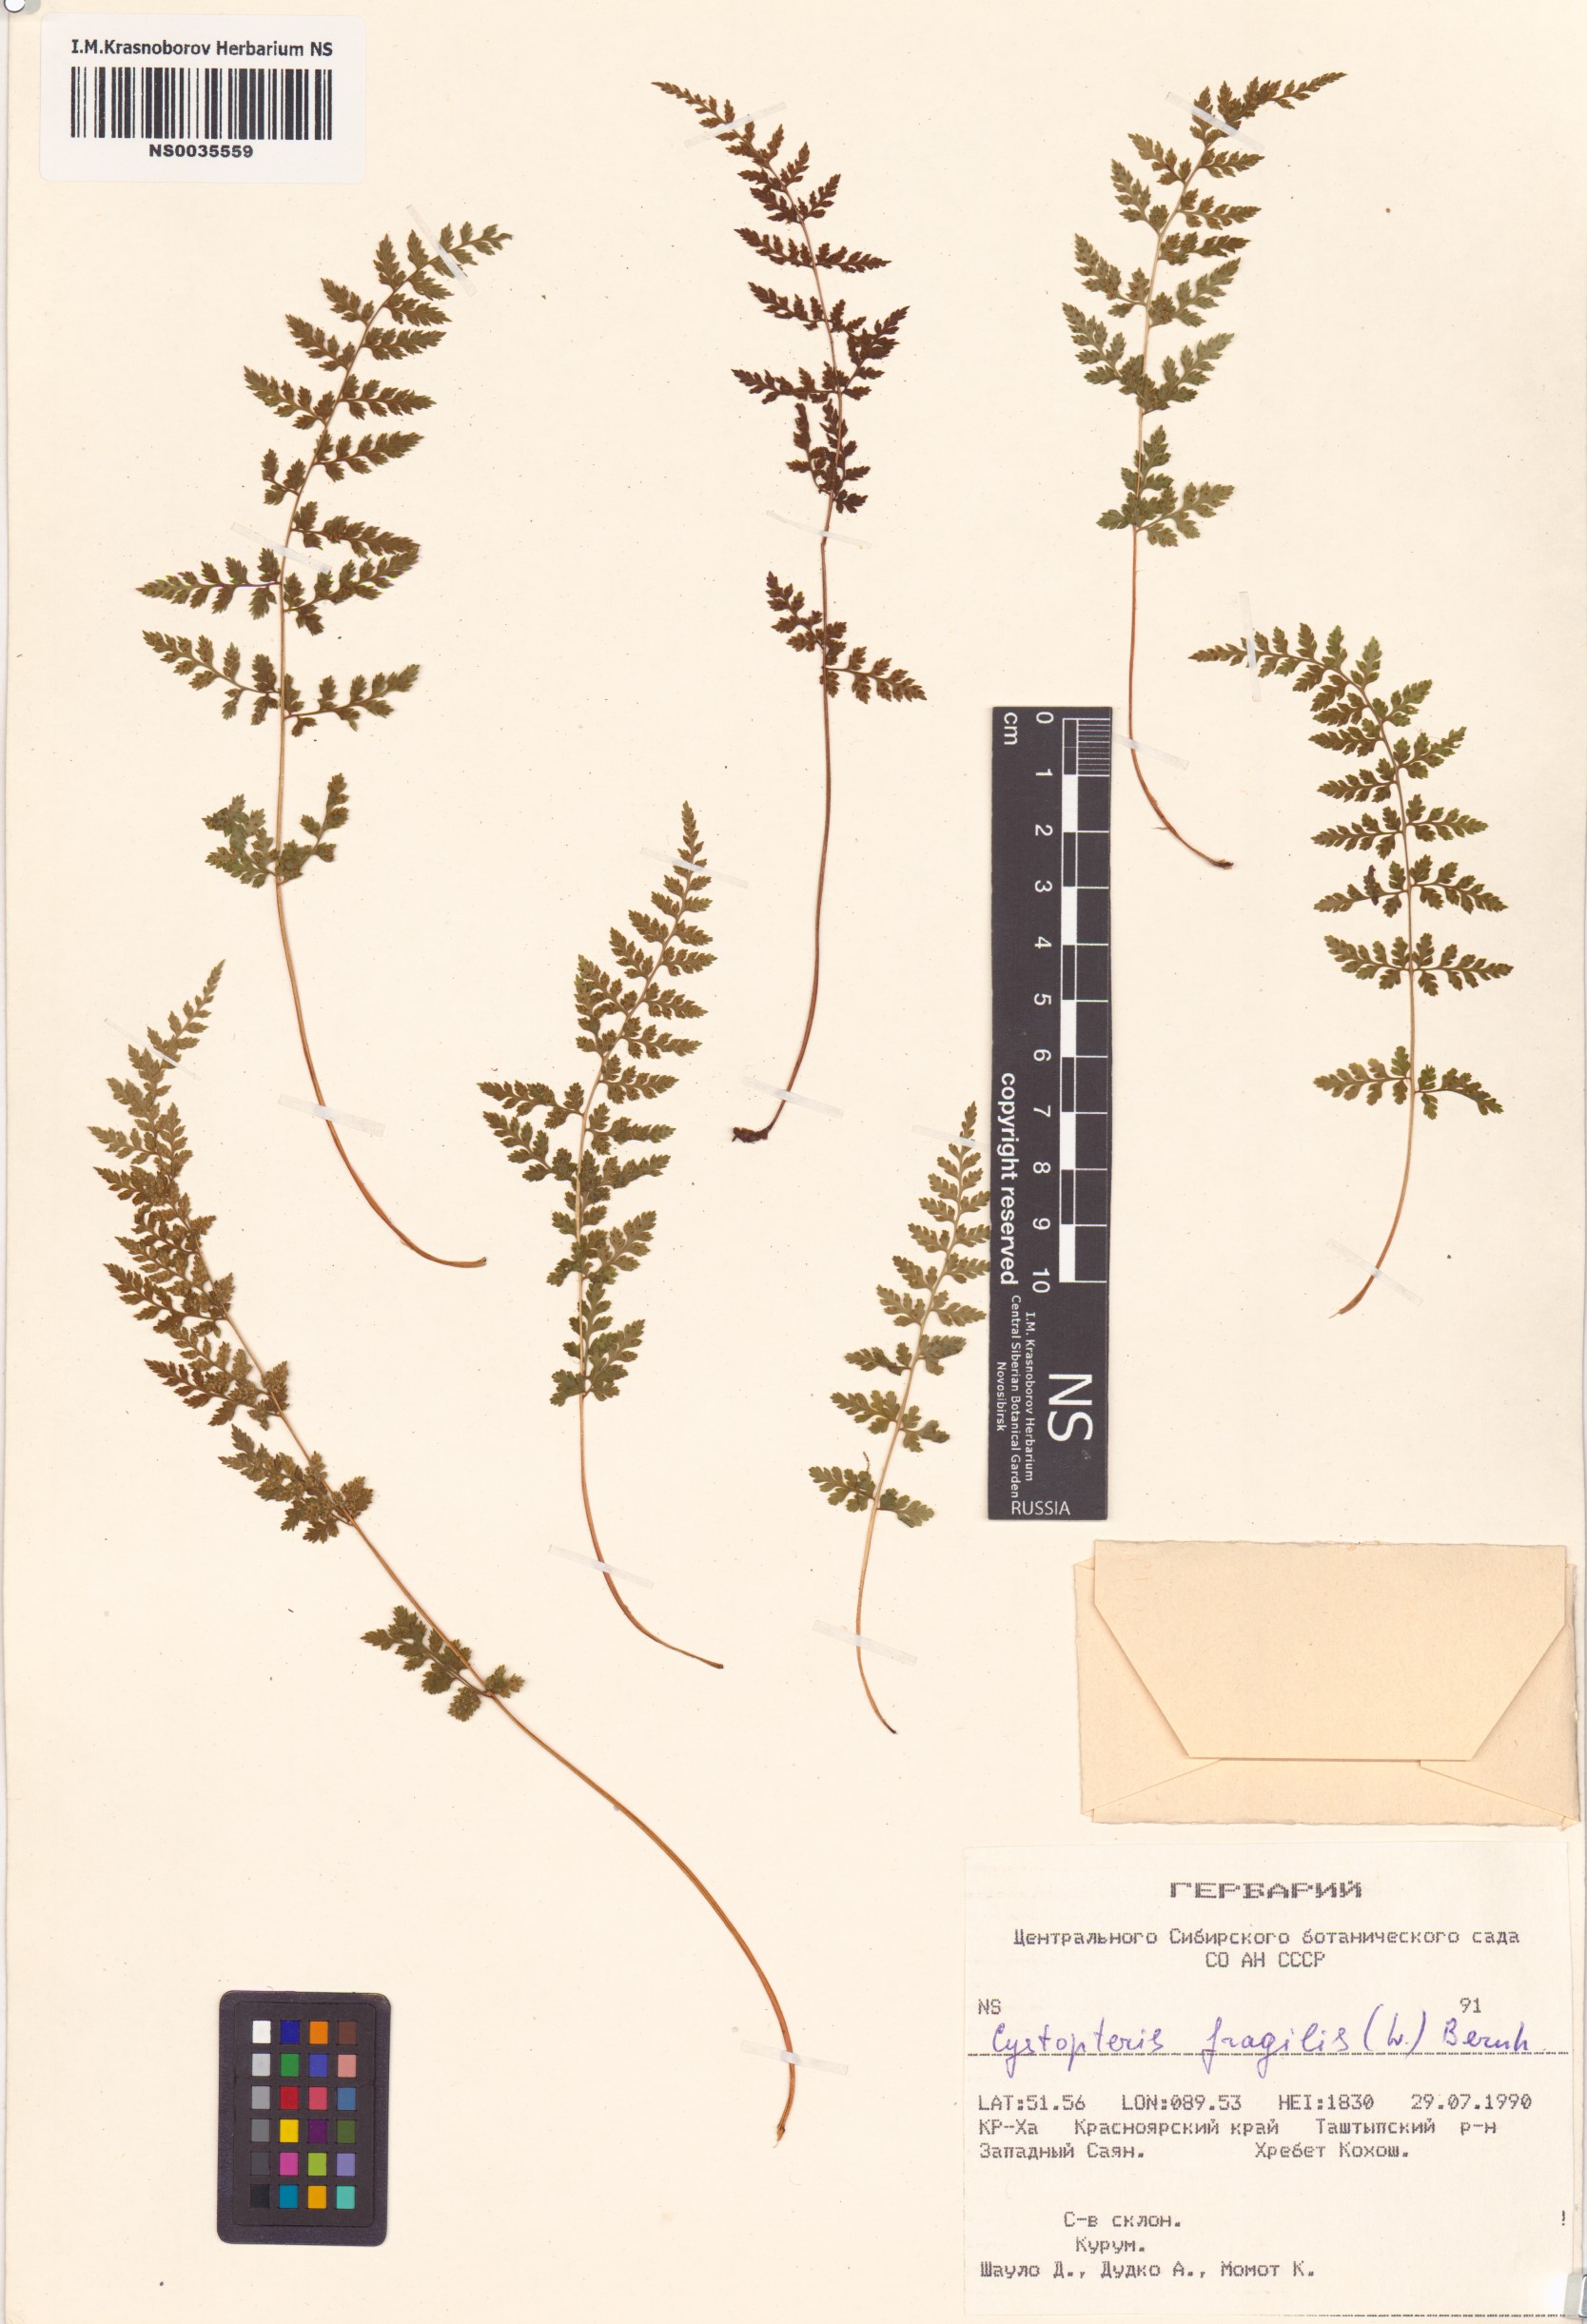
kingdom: Plantae
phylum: Tracheophyta
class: Polypodiopsida
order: Polypodiales
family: Cystopteridaceae
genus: Cystopteris
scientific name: Cystopteris fragilis
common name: Brittle bladder fern
